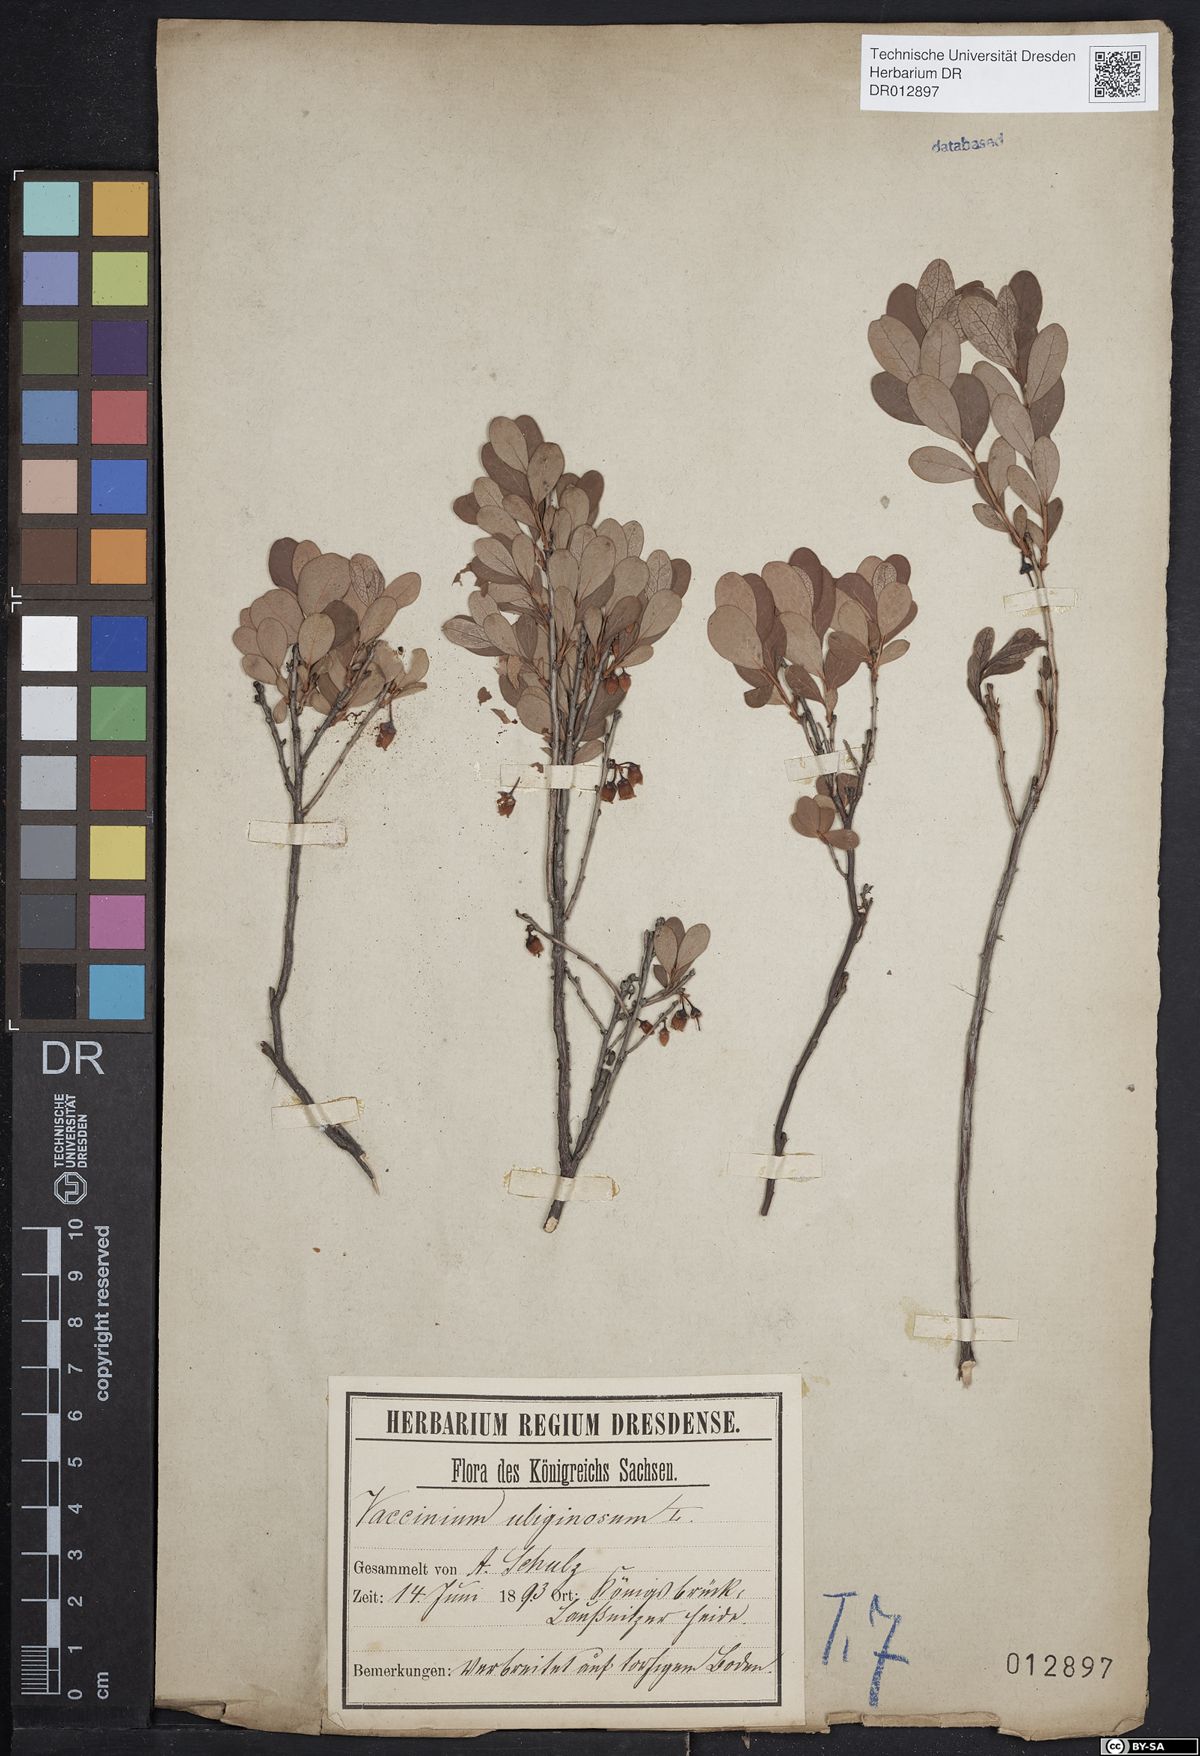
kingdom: Plantae
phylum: Tracheophyta
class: Magnoliopsida
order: Ericales
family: Ericaceae
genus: Vaccinium
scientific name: Vaccinium uliginosum
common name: Bog bilberry
